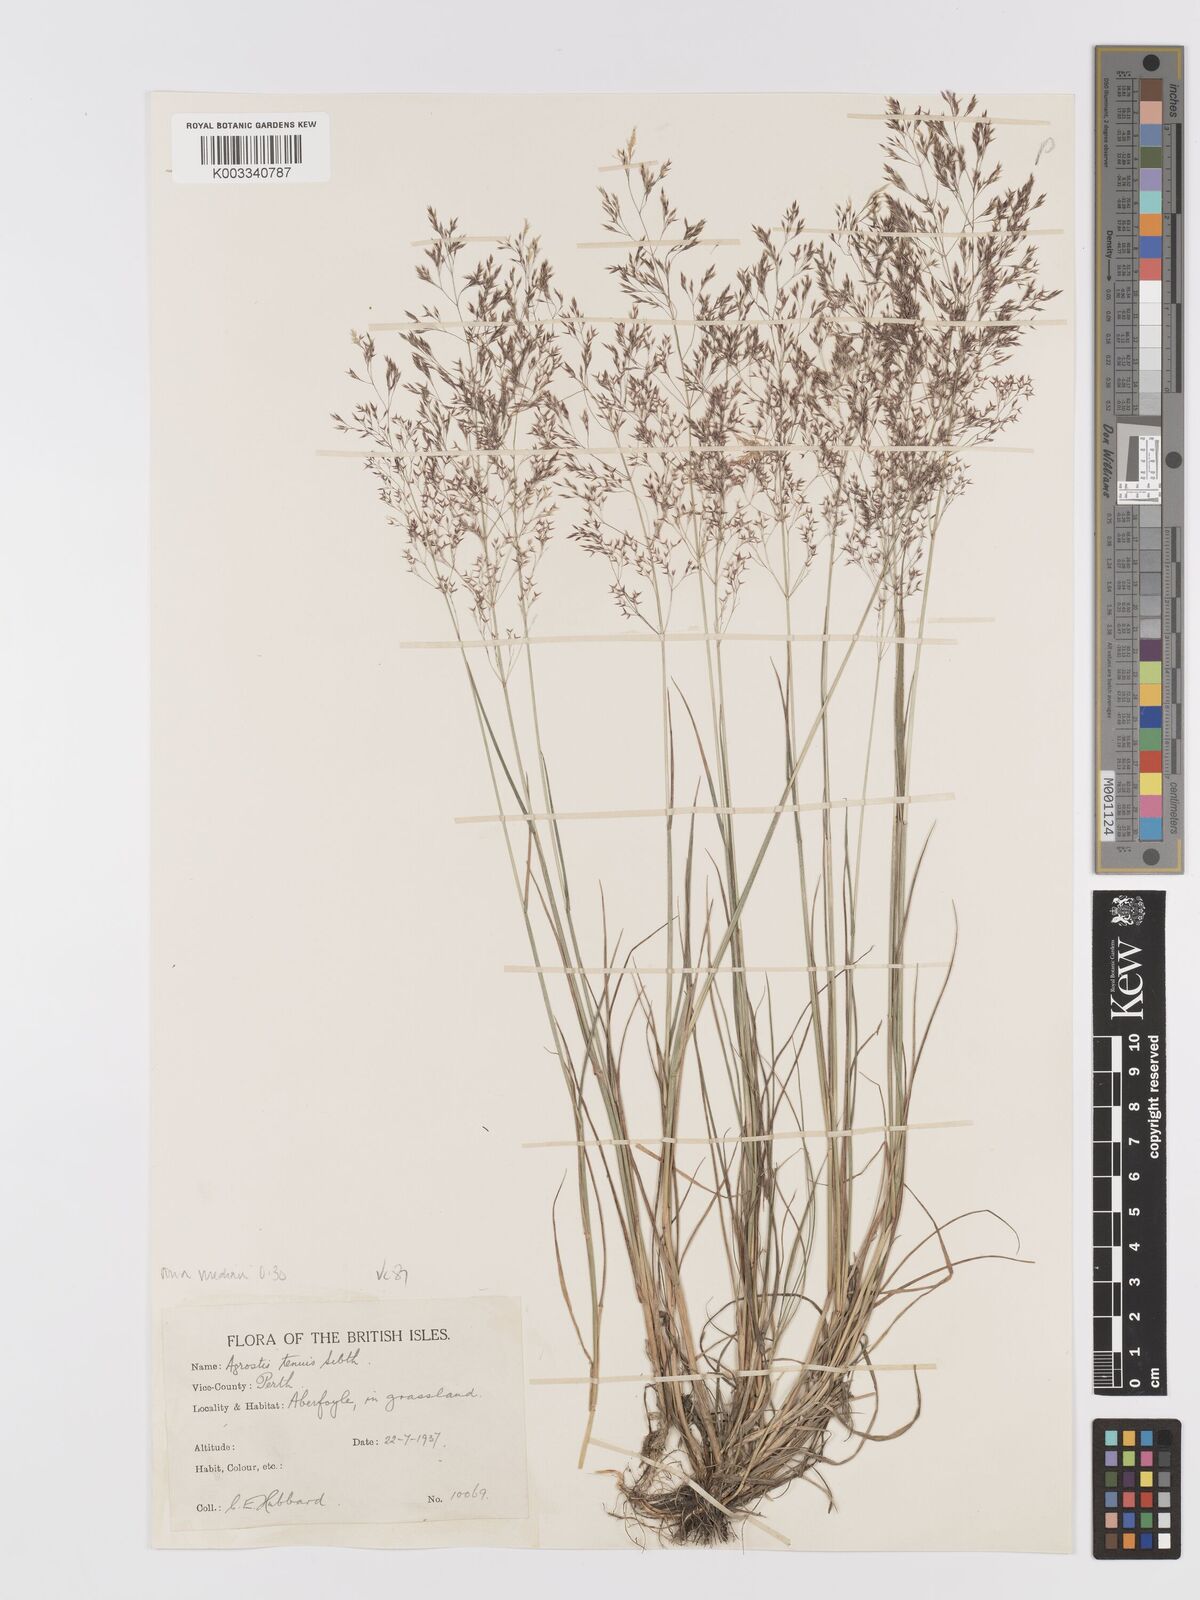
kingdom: Plantae
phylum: Tracheophyta
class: Liliopsida
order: Poales
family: Poaceae
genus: Agrostis
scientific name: Agrostis capillaris
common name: Colonial bentgrass
